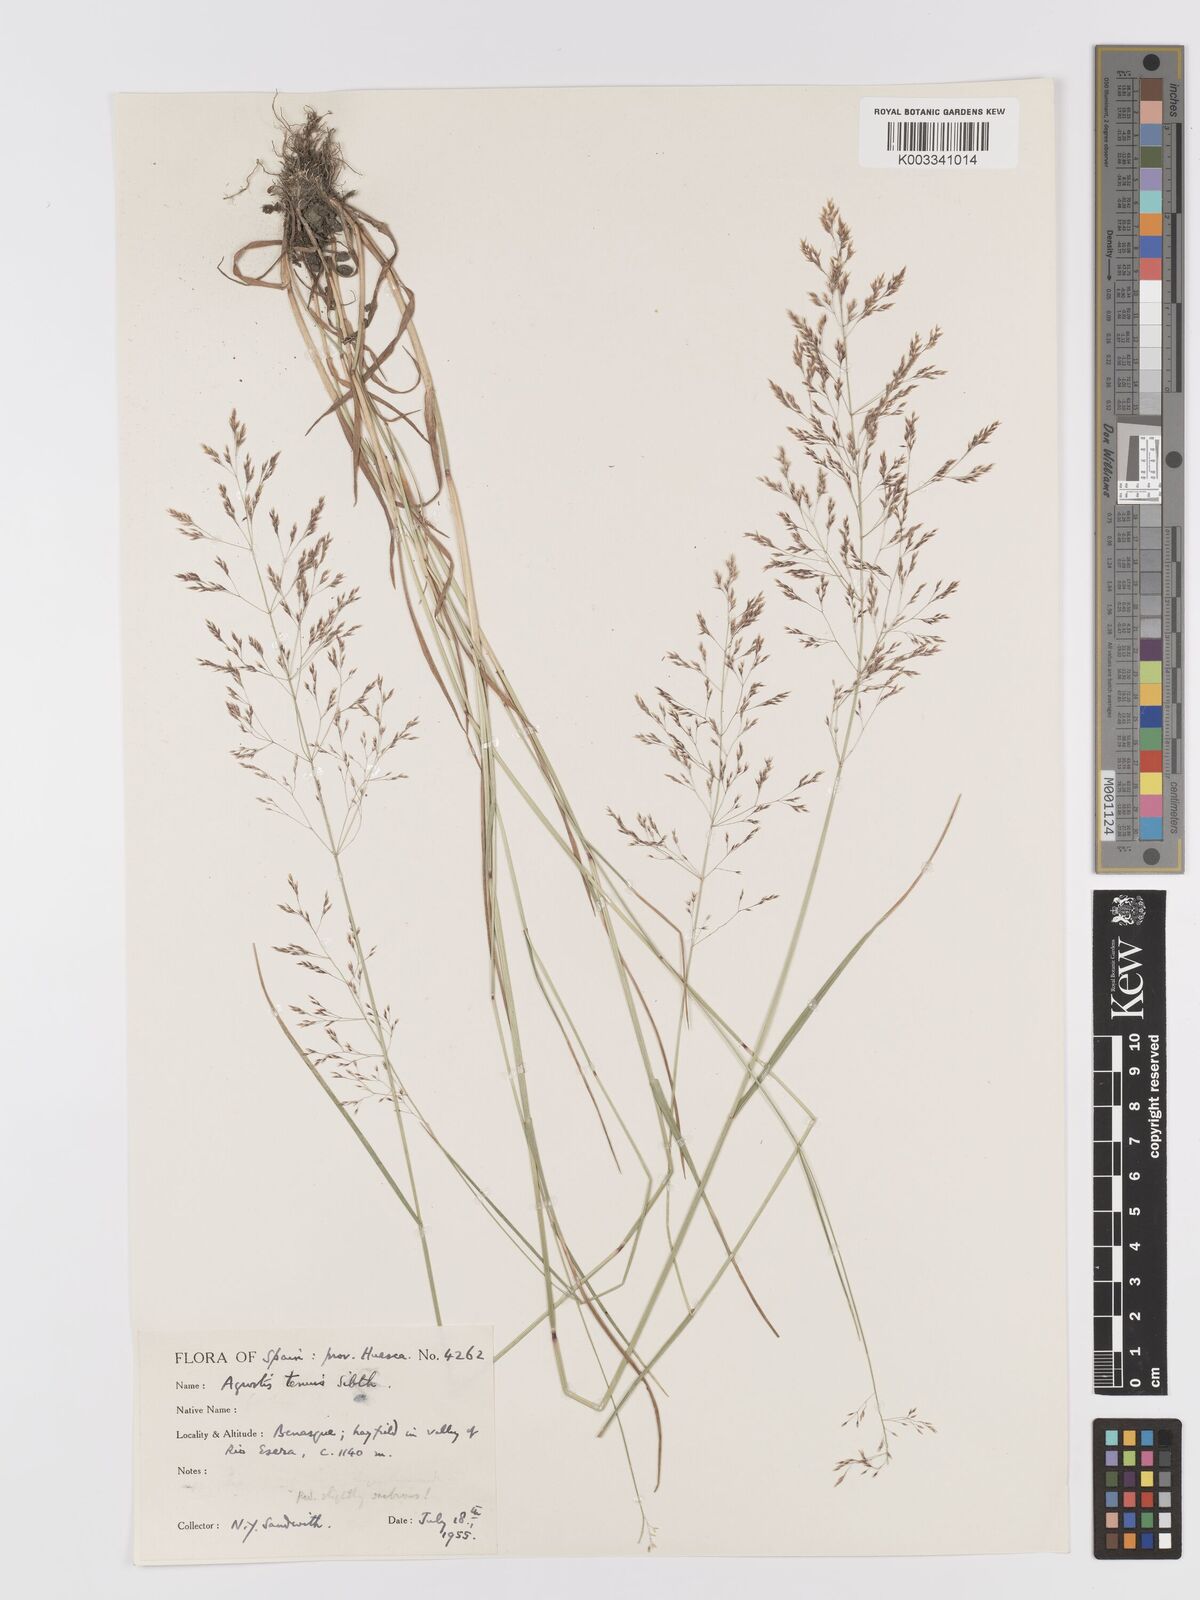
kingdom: Plantae
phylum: Tracheophyta
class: Liliopsida
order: Poales
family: Poaceae
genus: Agrostis
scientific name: Agrostis capillaris
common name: Colonial bentgrass
